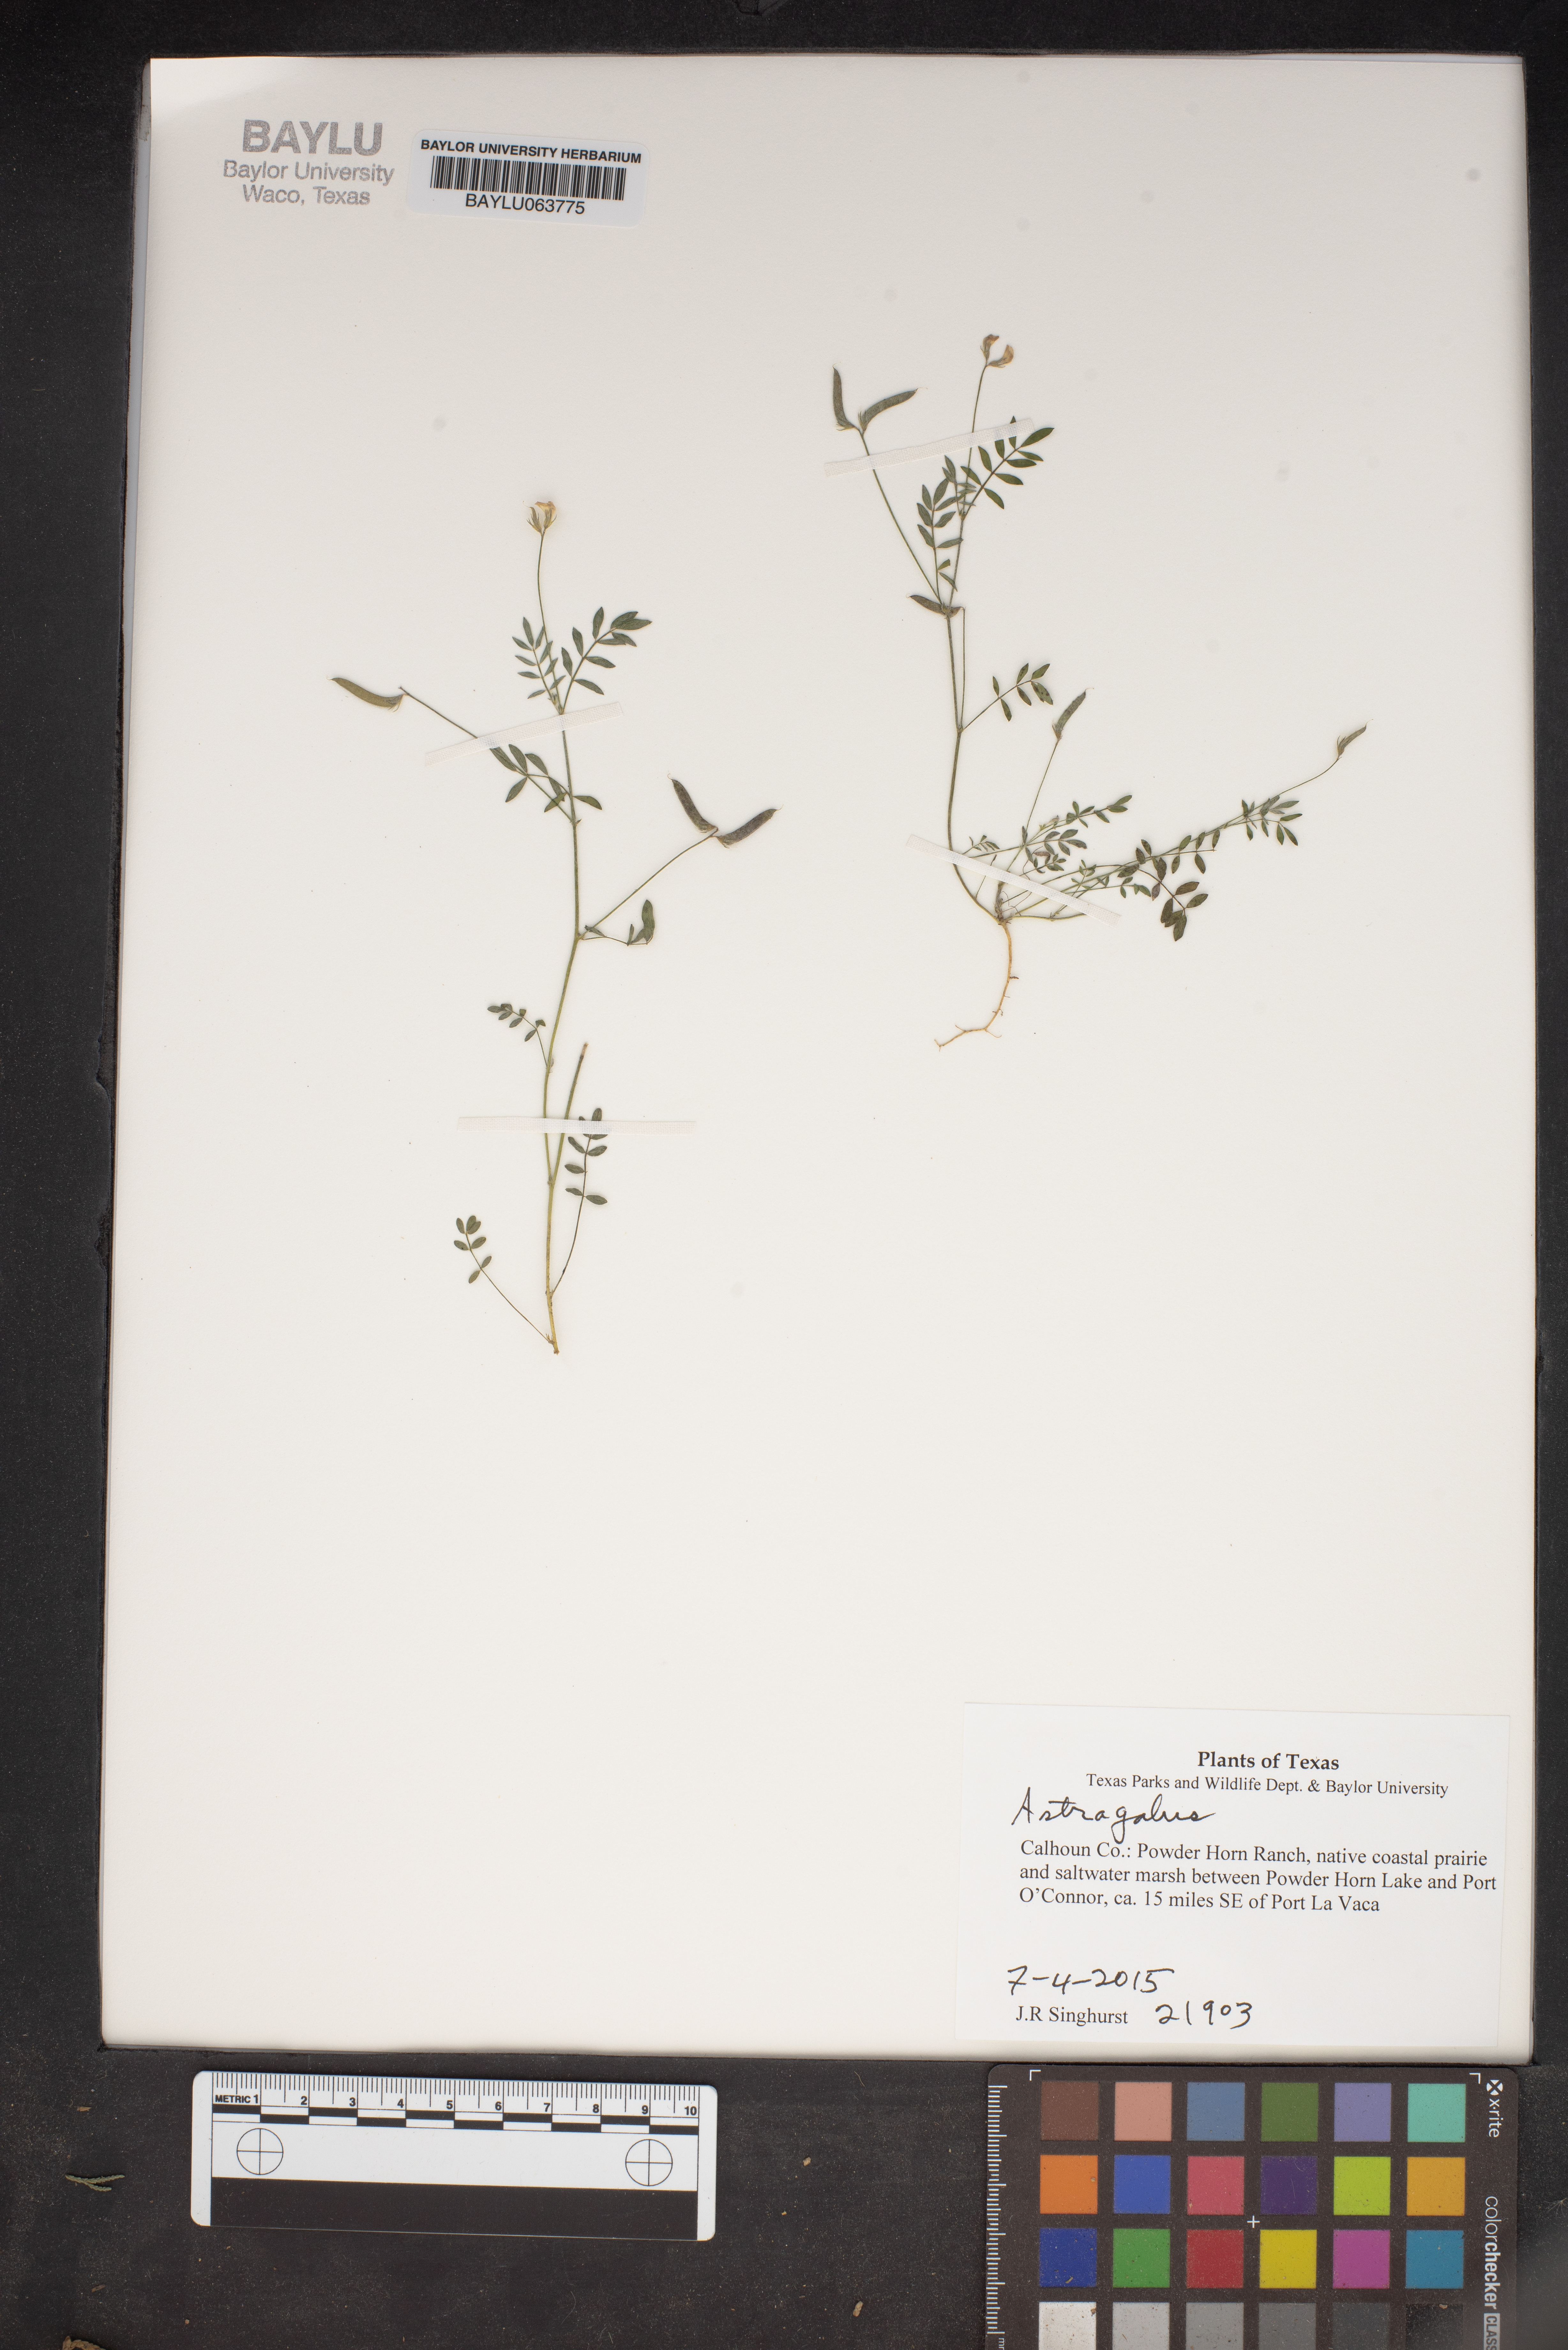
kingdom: Plantae
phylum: Tracheophyta
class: Magnoliopsida
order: Fabales
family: Fabaceae
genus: Astragalus
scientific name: Astragalus
